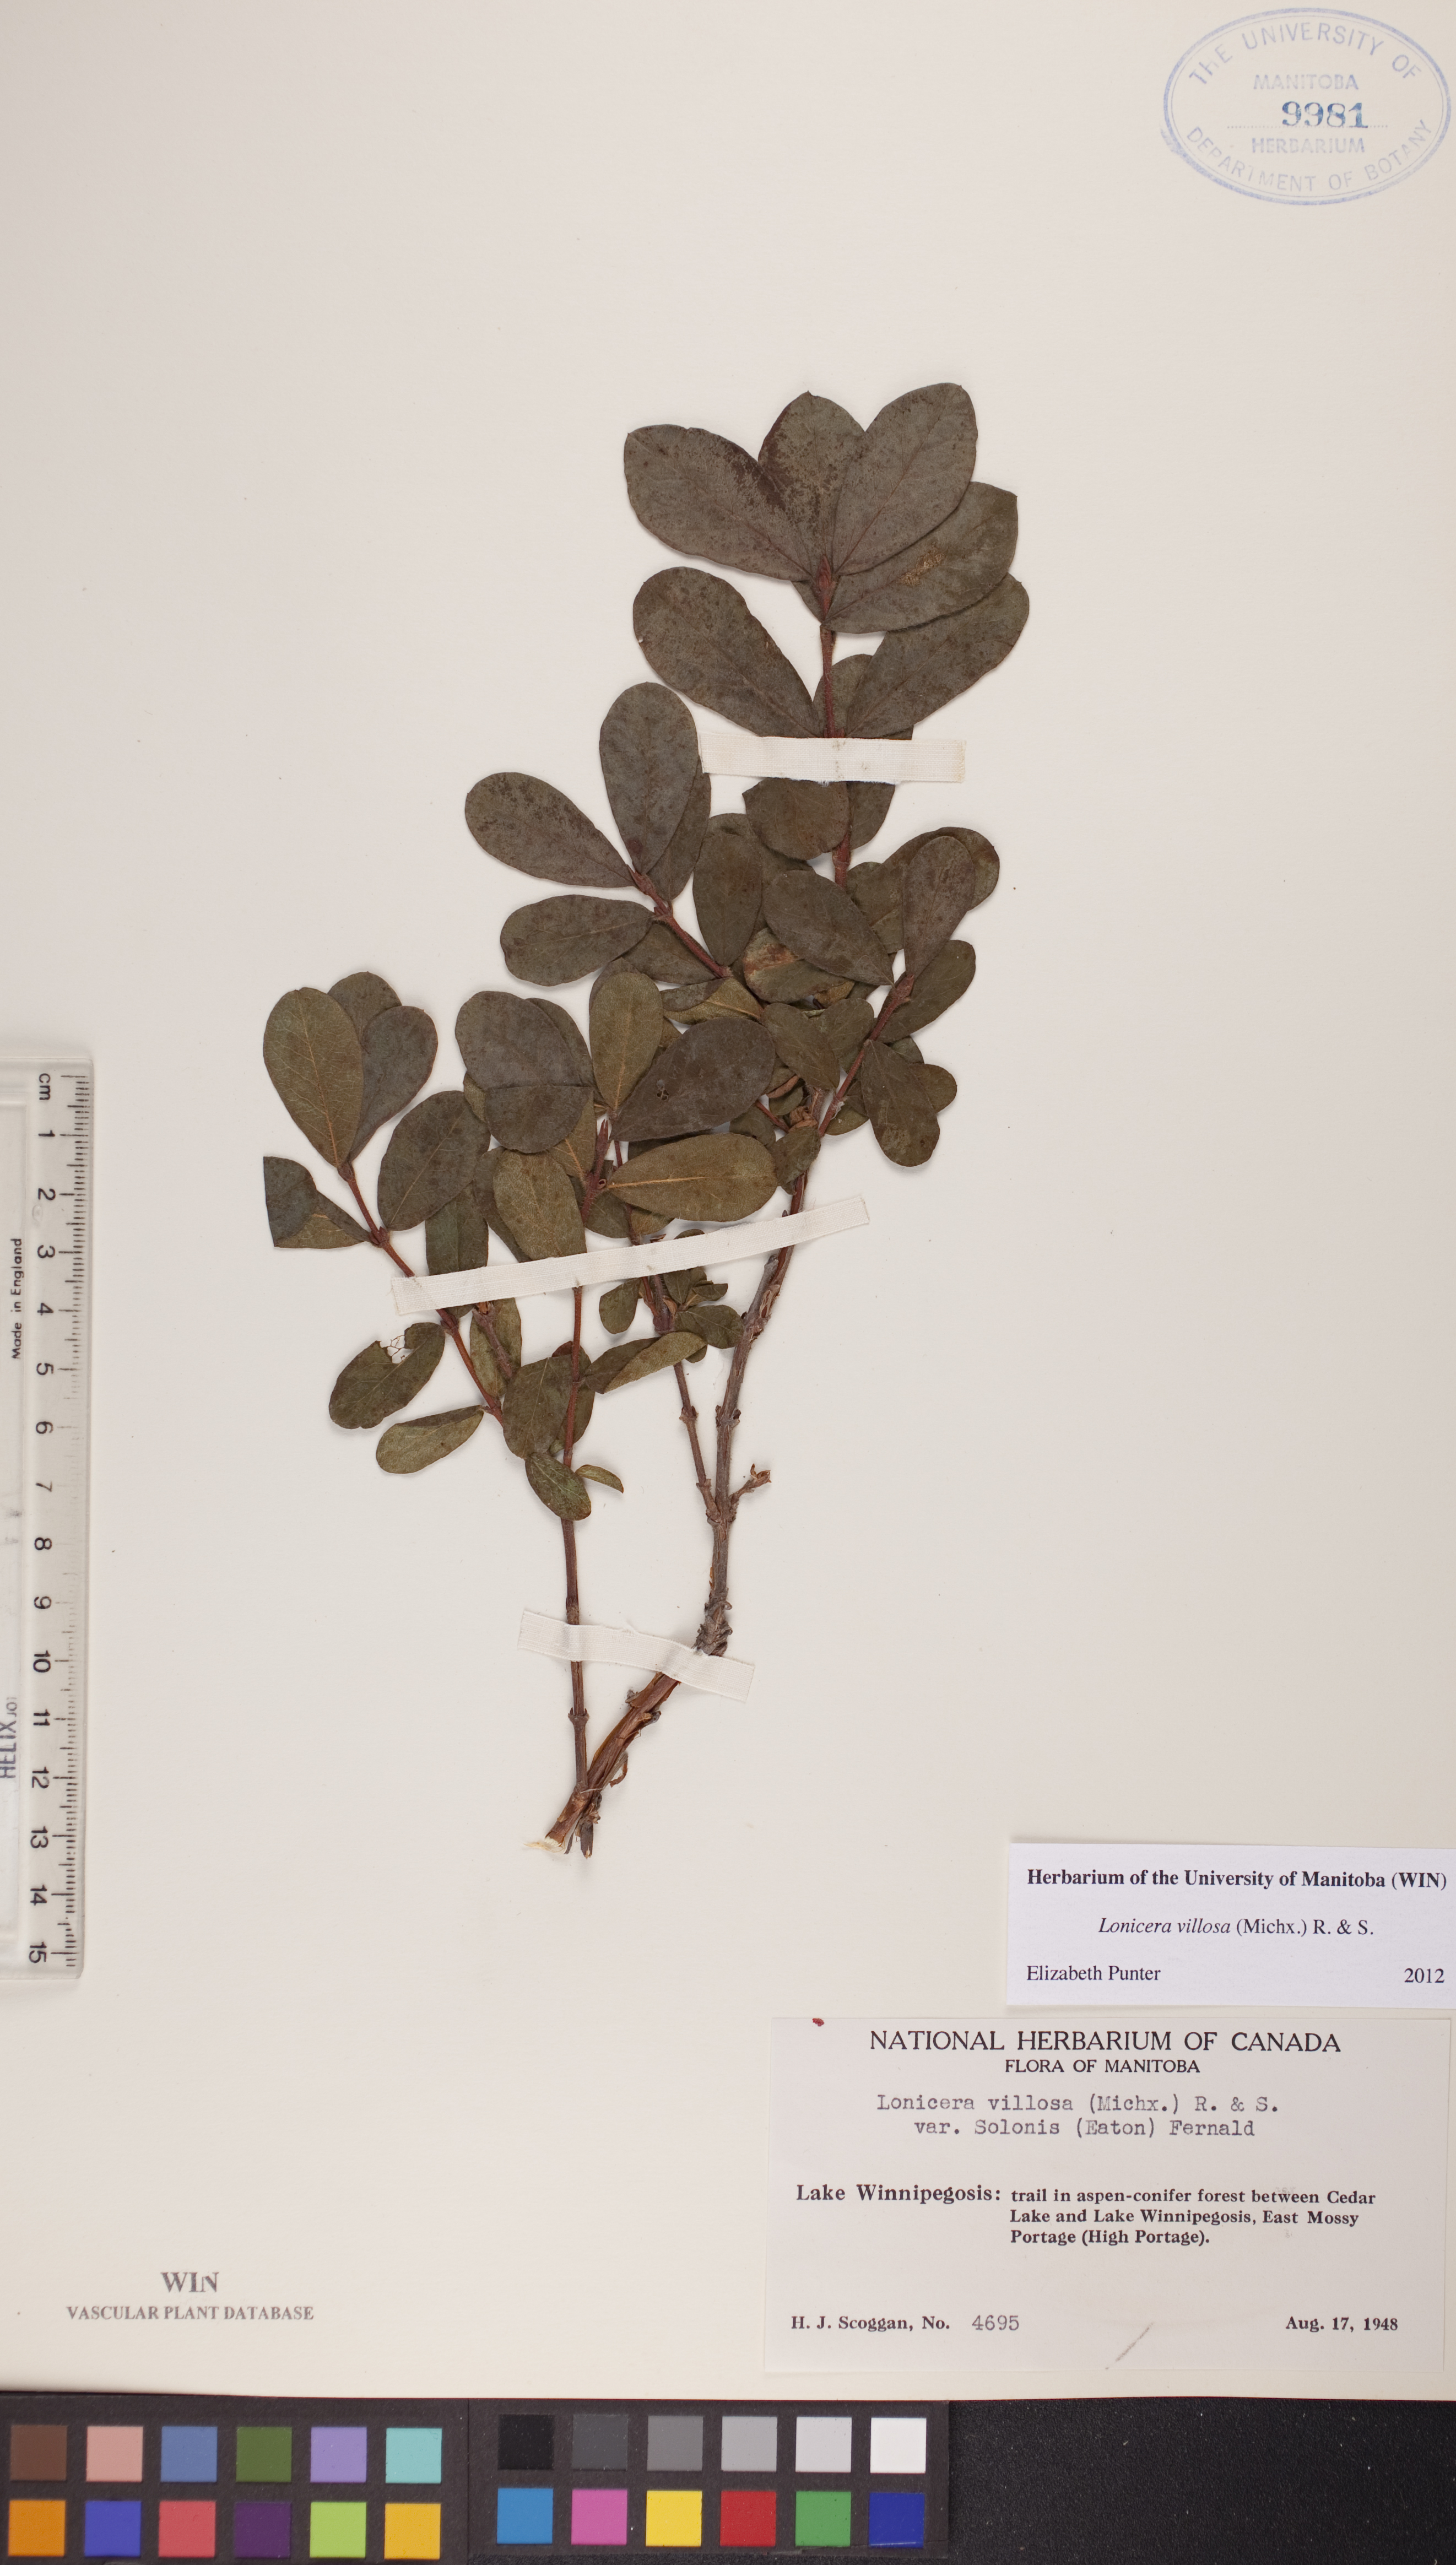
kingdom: Plantae
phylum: Tracheophyta
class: Magnoliopsida
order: Dipsacales
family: Caprifoliaceae
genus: Lonicera
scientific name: Lonicera villosa
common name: Mountain fly-honeysuckle
